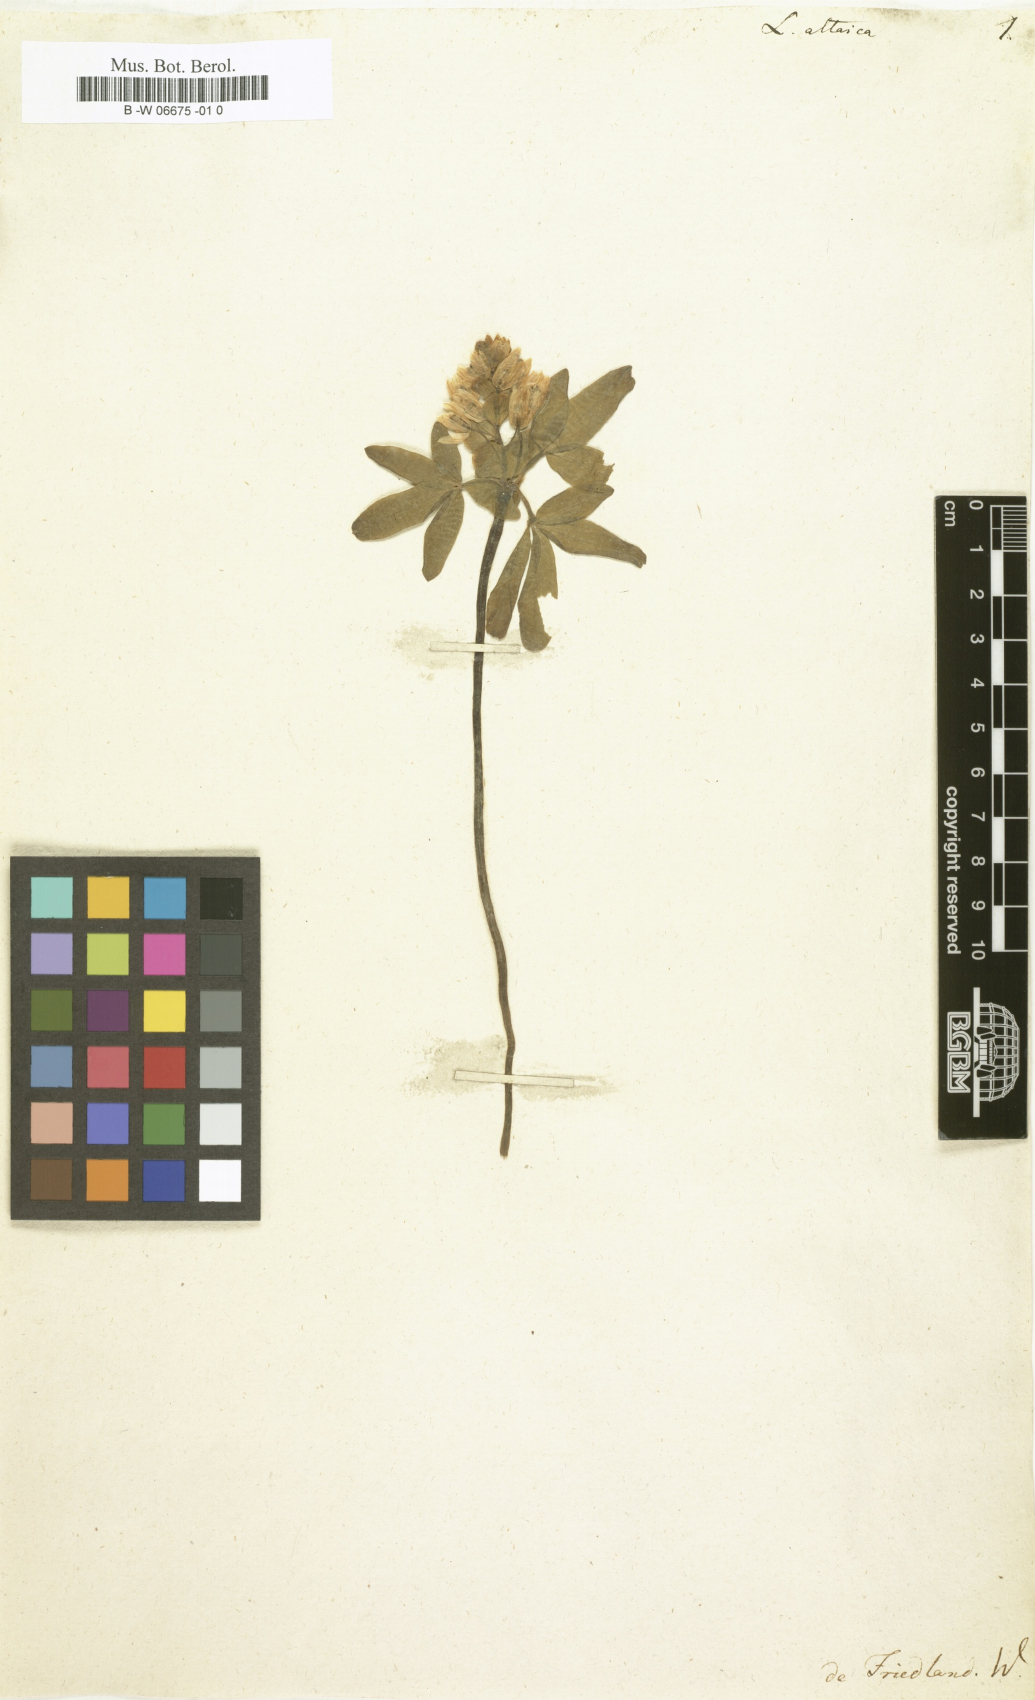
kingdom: Plantae
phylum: Tracheophyta
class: Magnoliopsida
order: Ranunculales
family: Berberidaceae
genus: Gymnospermium
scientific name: Gymnospermium altaicum
